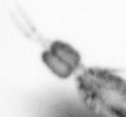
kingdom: Animalia
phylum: Arthropoda
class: Copepoda
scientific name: Copepoda
